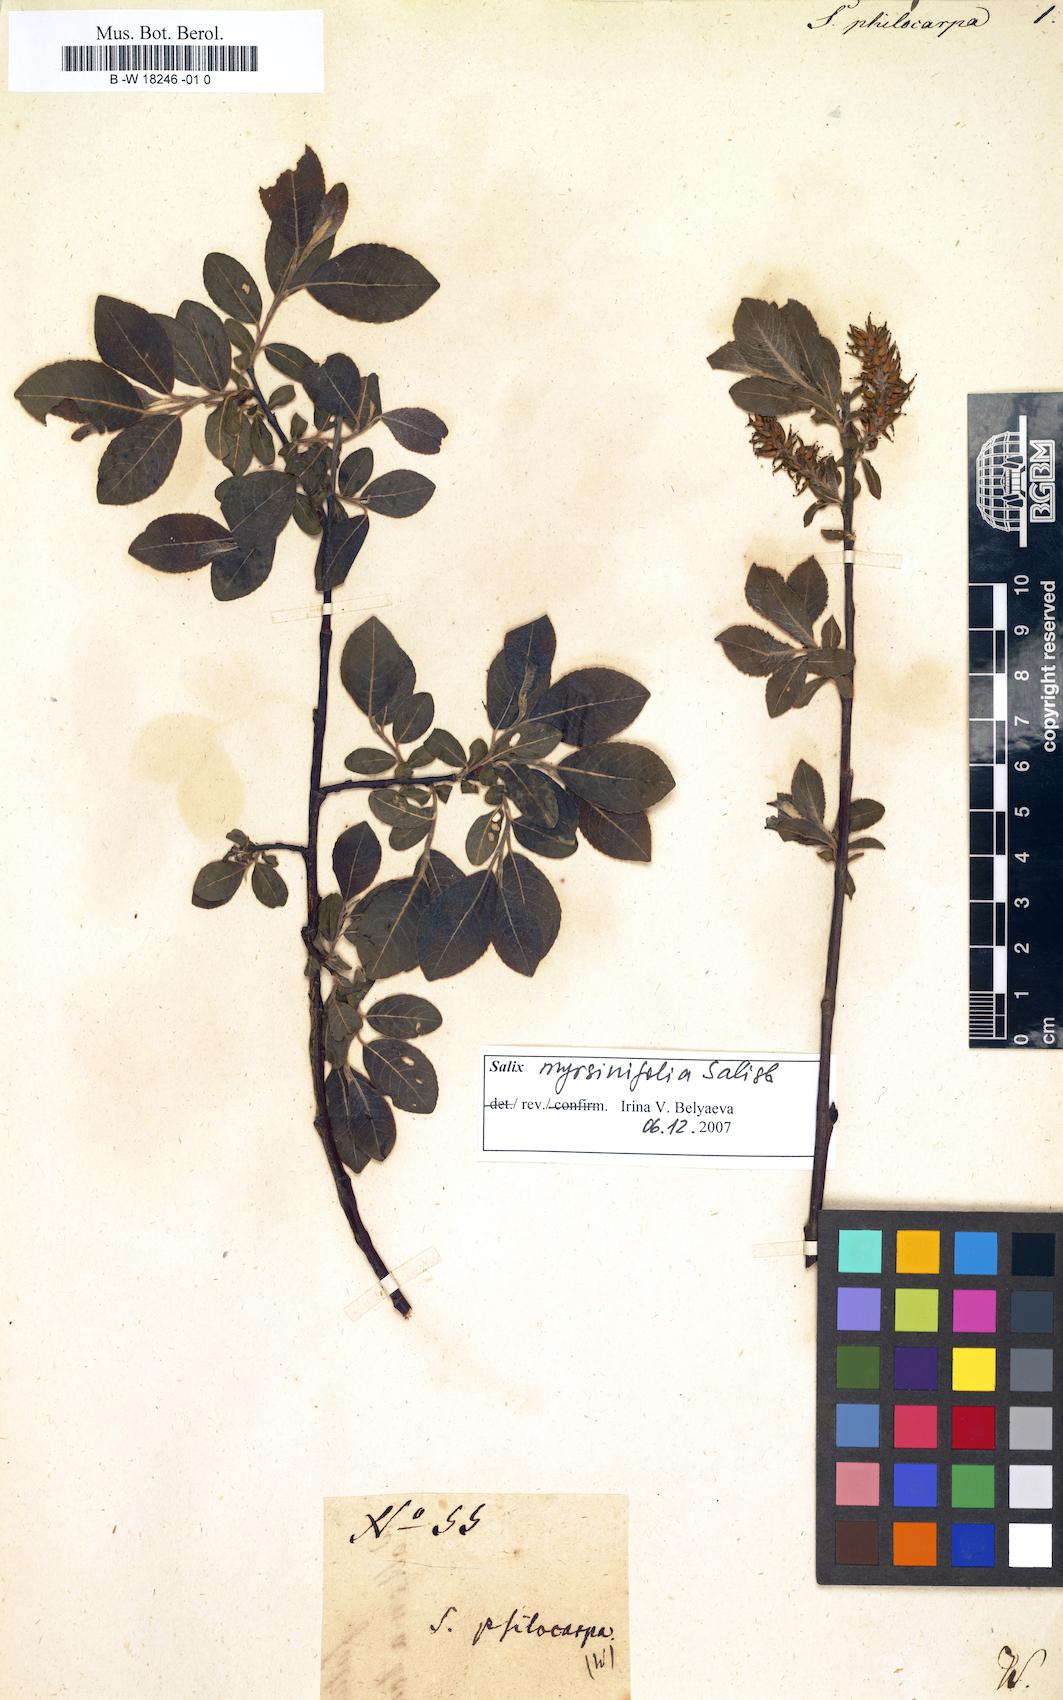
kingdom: Plantae
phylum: Tracheophyta
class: Magnoliopsida
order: Malpighiales
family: Salicaceae
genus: Salix
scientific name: Salix myrsinifolia
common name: Dark-leaved willow
